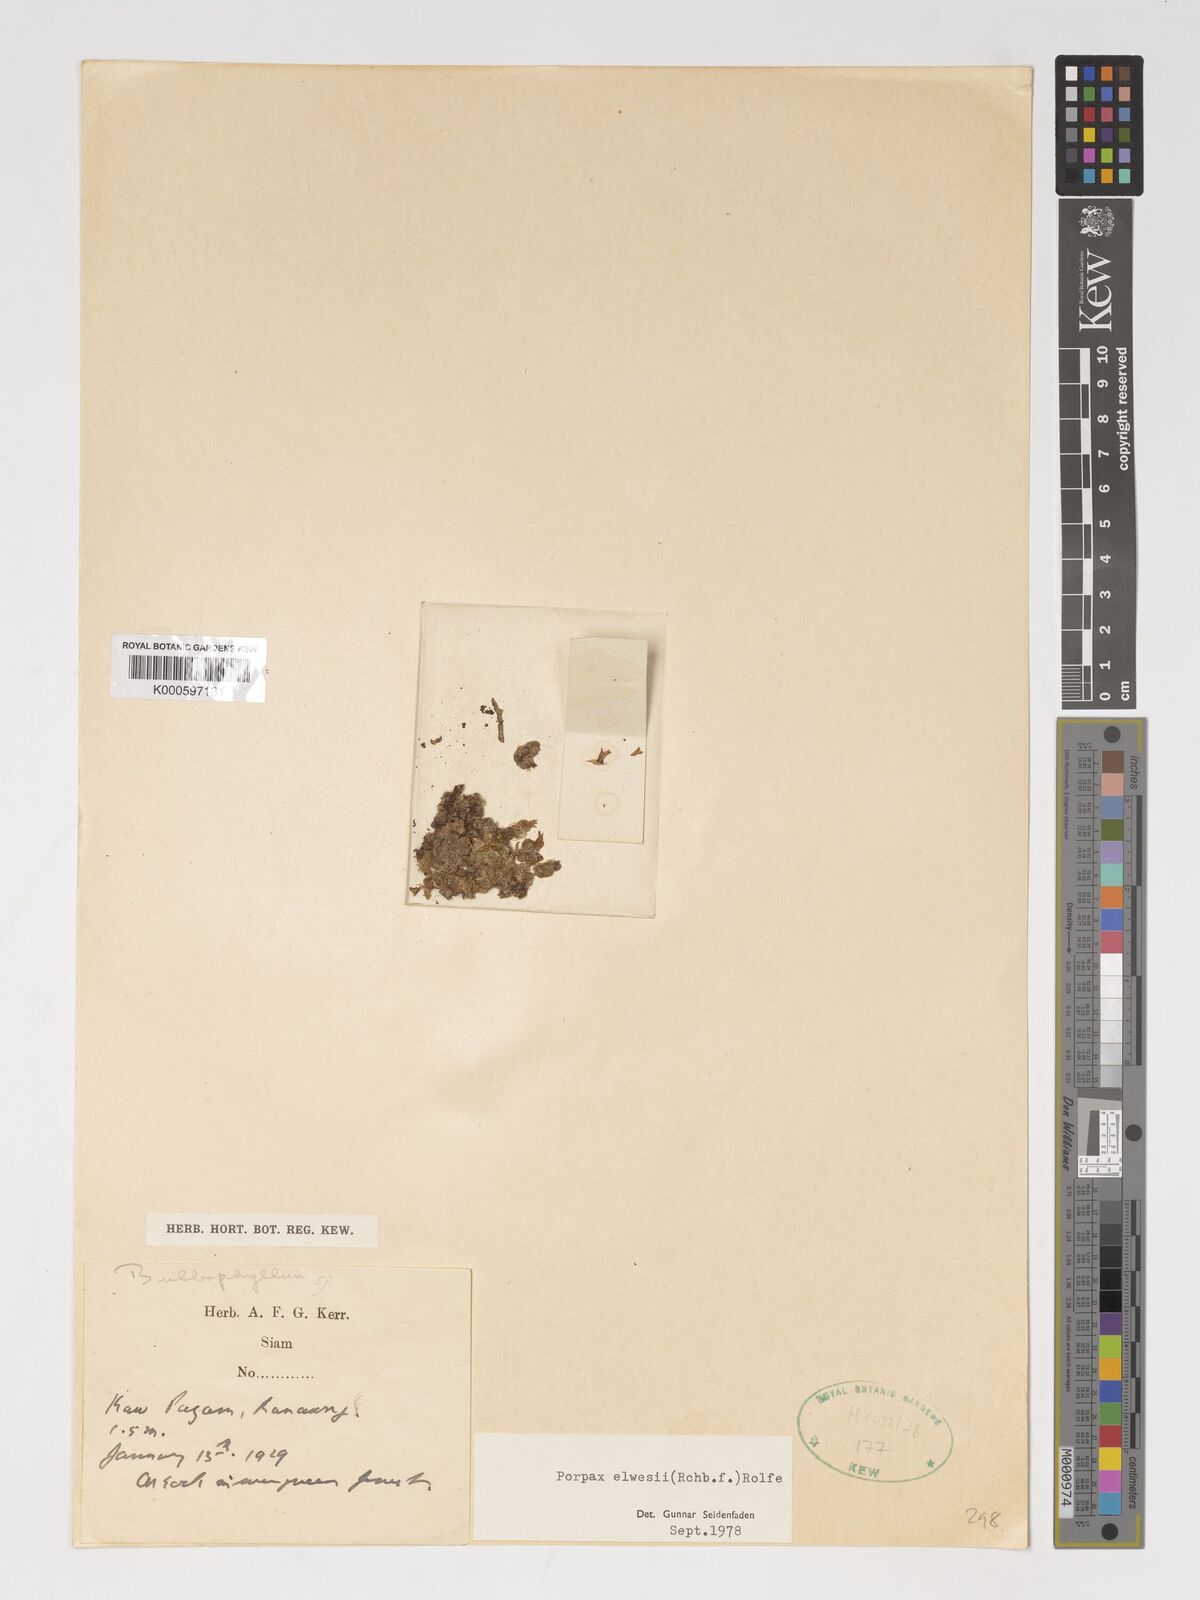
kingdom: Plantae
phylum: Tracheophyta
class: Liliopsida
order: Asparagales
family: Orchidaceae
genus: Porpax
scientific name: Porpax elwesii
